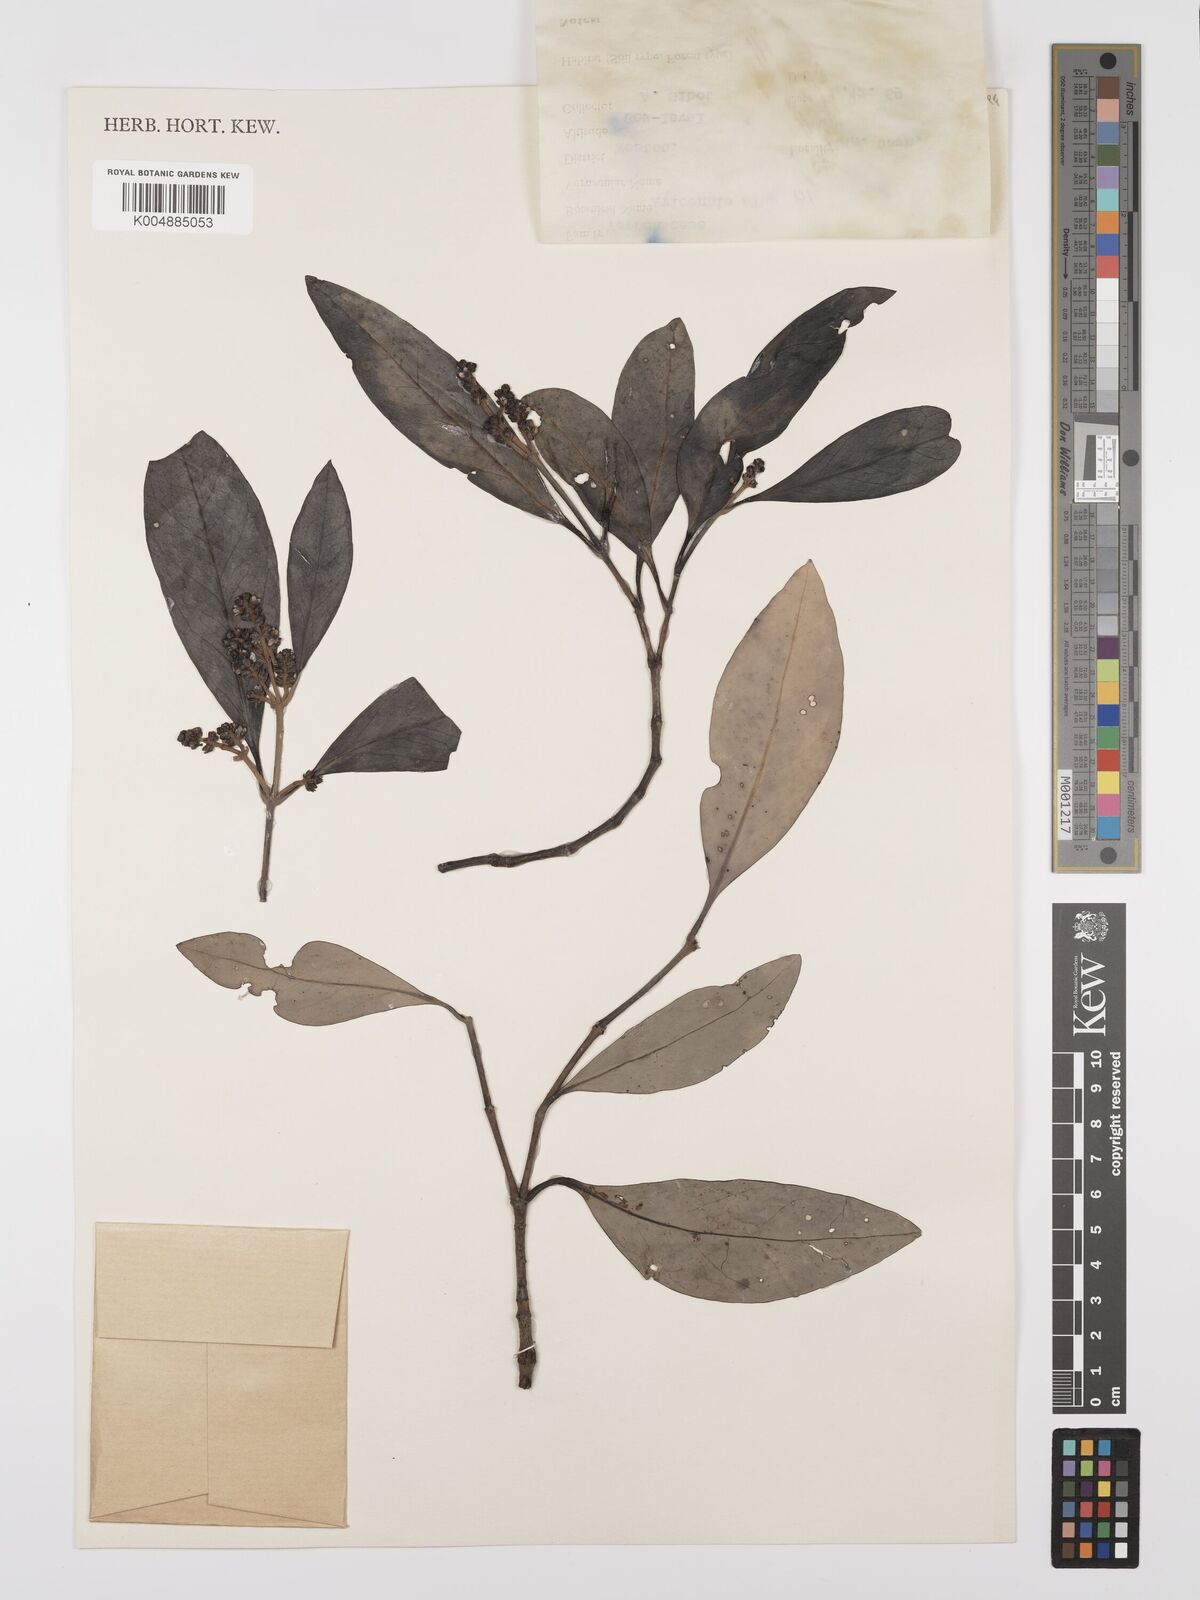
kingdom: Plantae
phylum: Tracheophyta
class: Magnoliopsida
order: Lamiales
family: Acanthaceae
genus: Avicennia
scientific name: Avicennia alba
